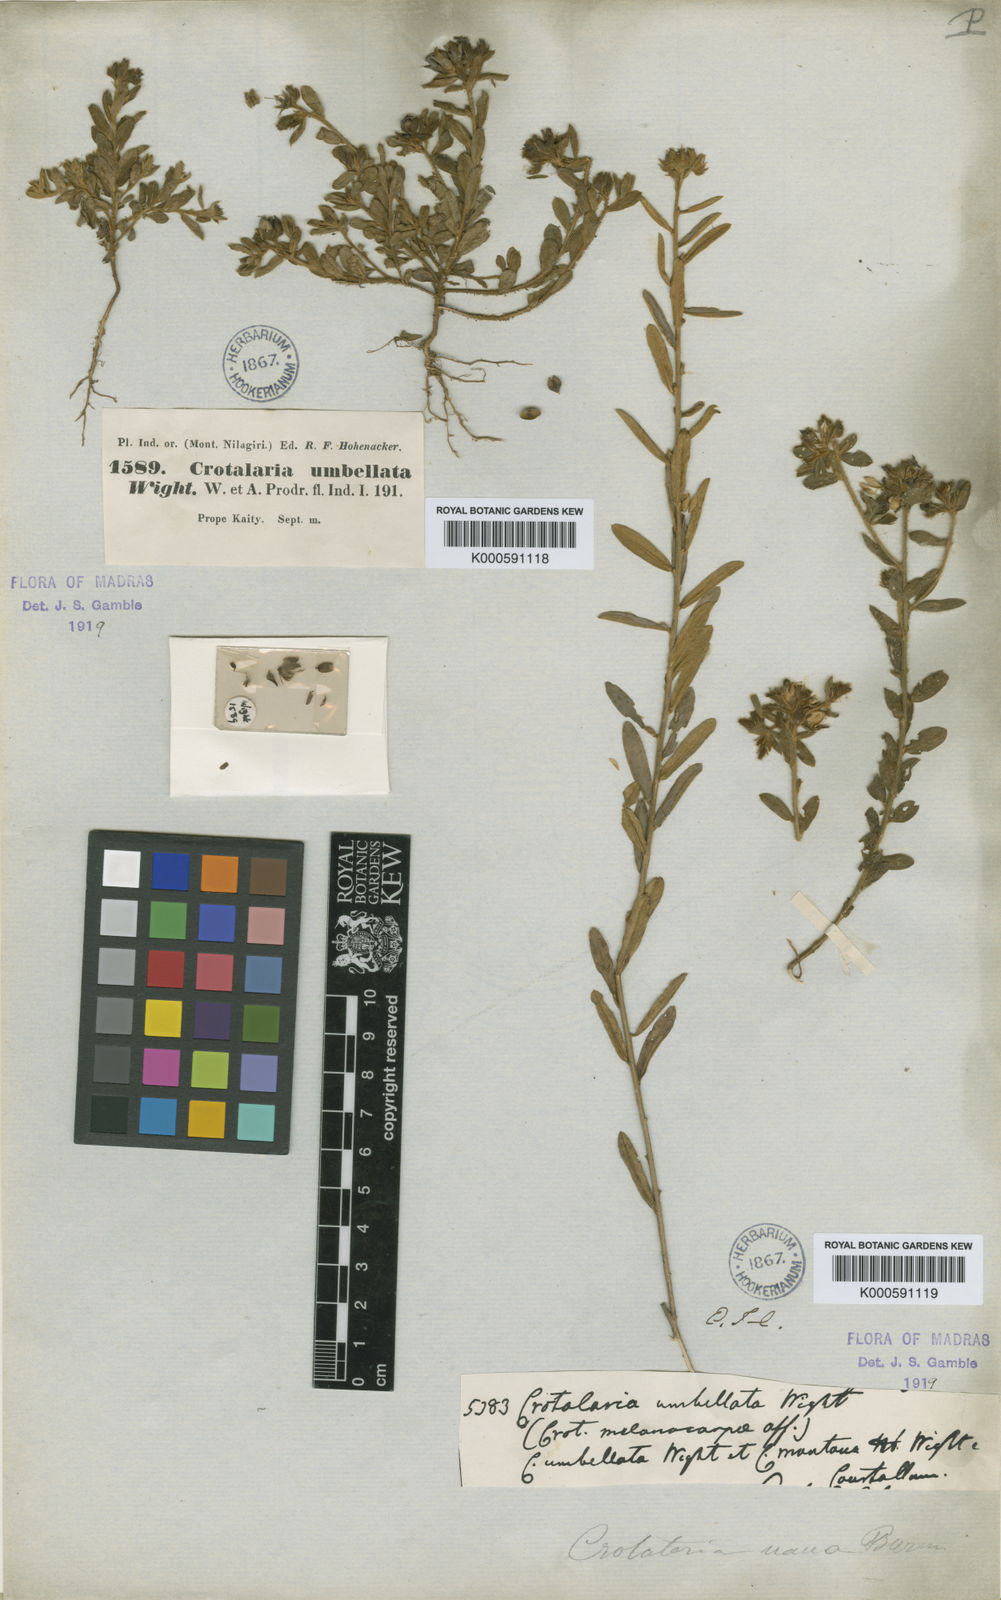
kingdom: Plantae
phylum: Tracheophyta
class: Magnoliopsida
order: Fabales
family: Fabaceae
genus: Crotalaria
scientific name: Crotalaria
